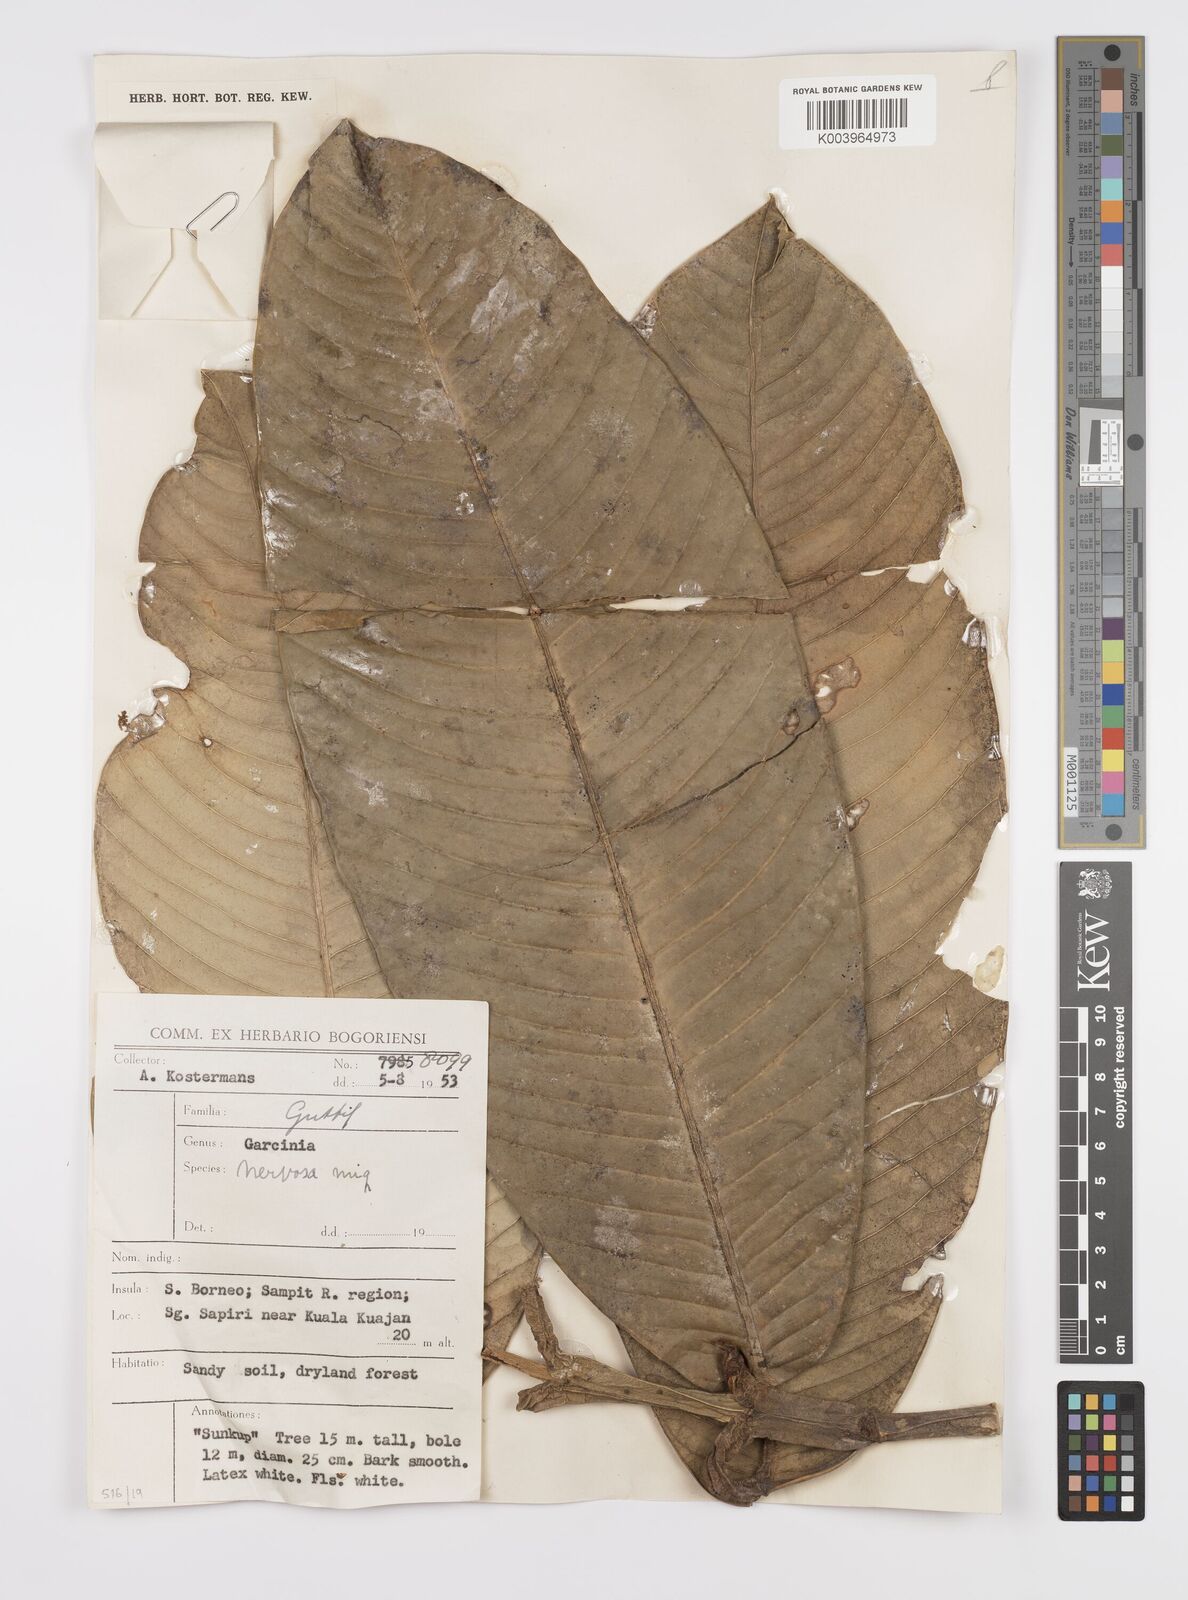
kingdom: Plantae
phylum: Tracheophyta
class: Magnoliopsida
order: Malpighiales
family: Clusiaceae
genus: Garcinia
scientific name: Garcinia nervosa
